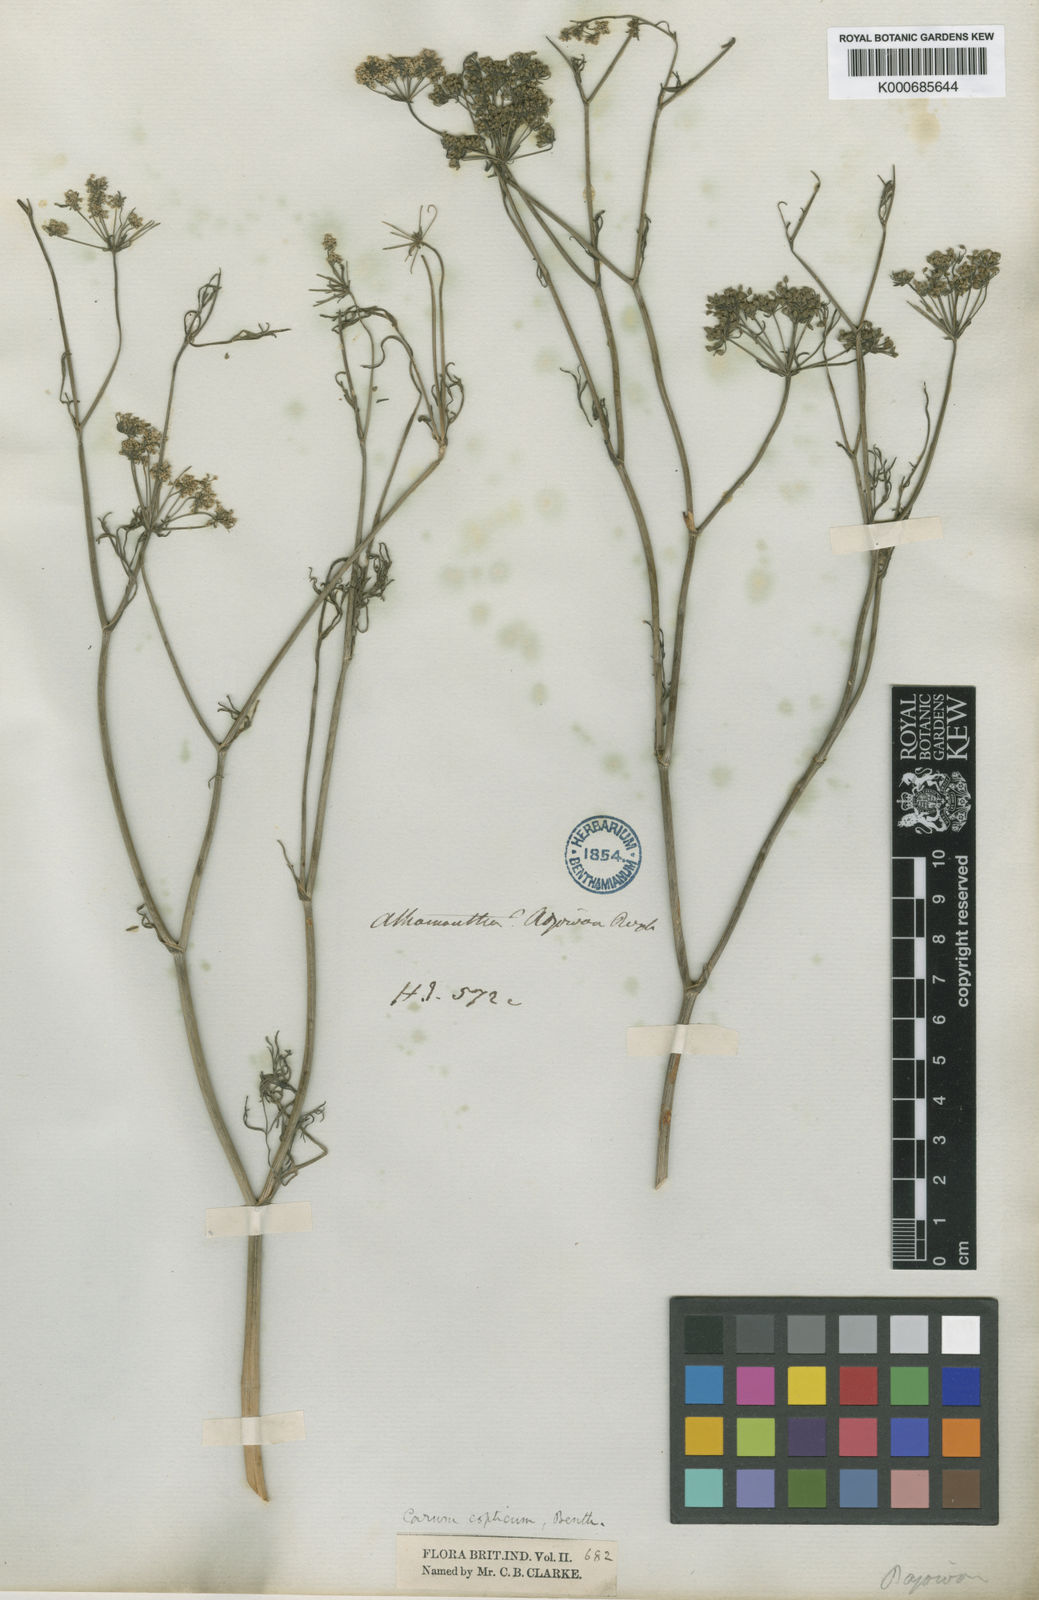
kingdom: Plantae
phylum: Tracheophyta
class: Magnoliopsida
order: Apiales
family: Apiaceae
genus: Trachyspermum
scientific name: Trachyspermum ammi
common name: Ajowan
